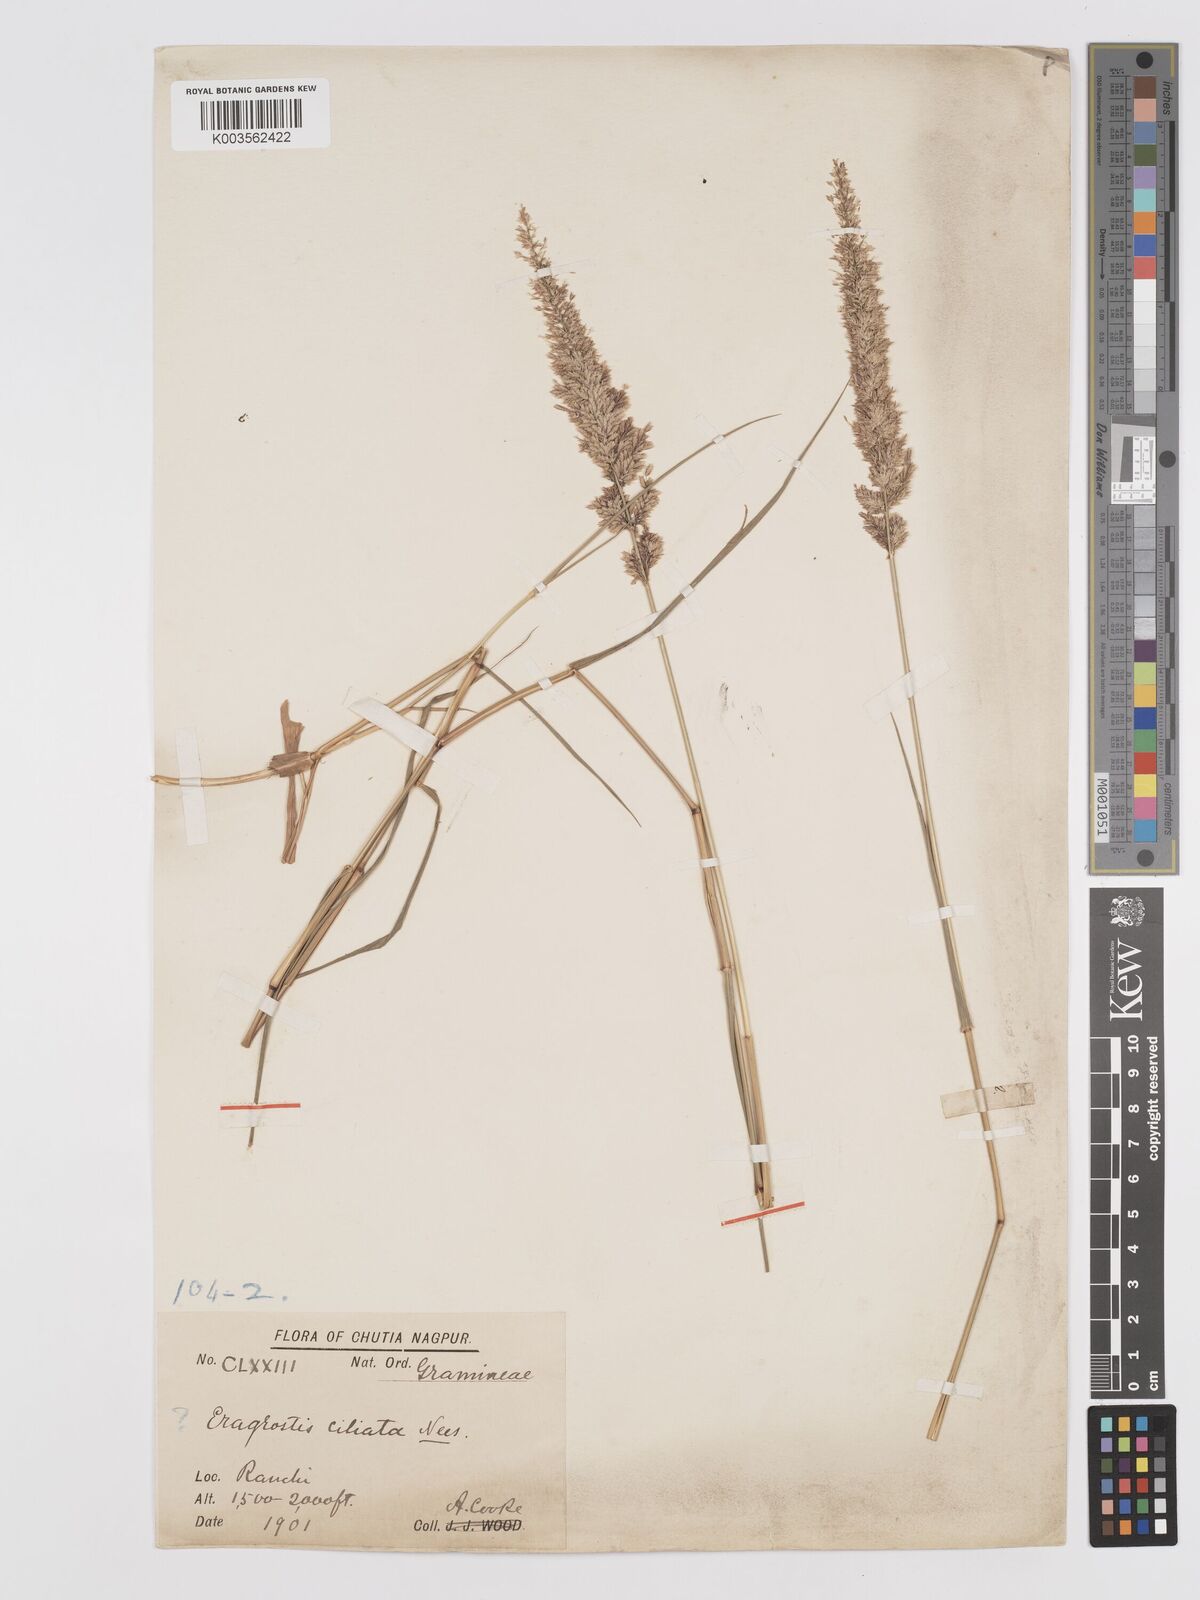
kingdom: Plantae
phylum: Tracheophyta
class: Liliopsida
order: Poales
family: Poaceae
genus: Eragrostis
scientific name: Eragrostis coarctata
